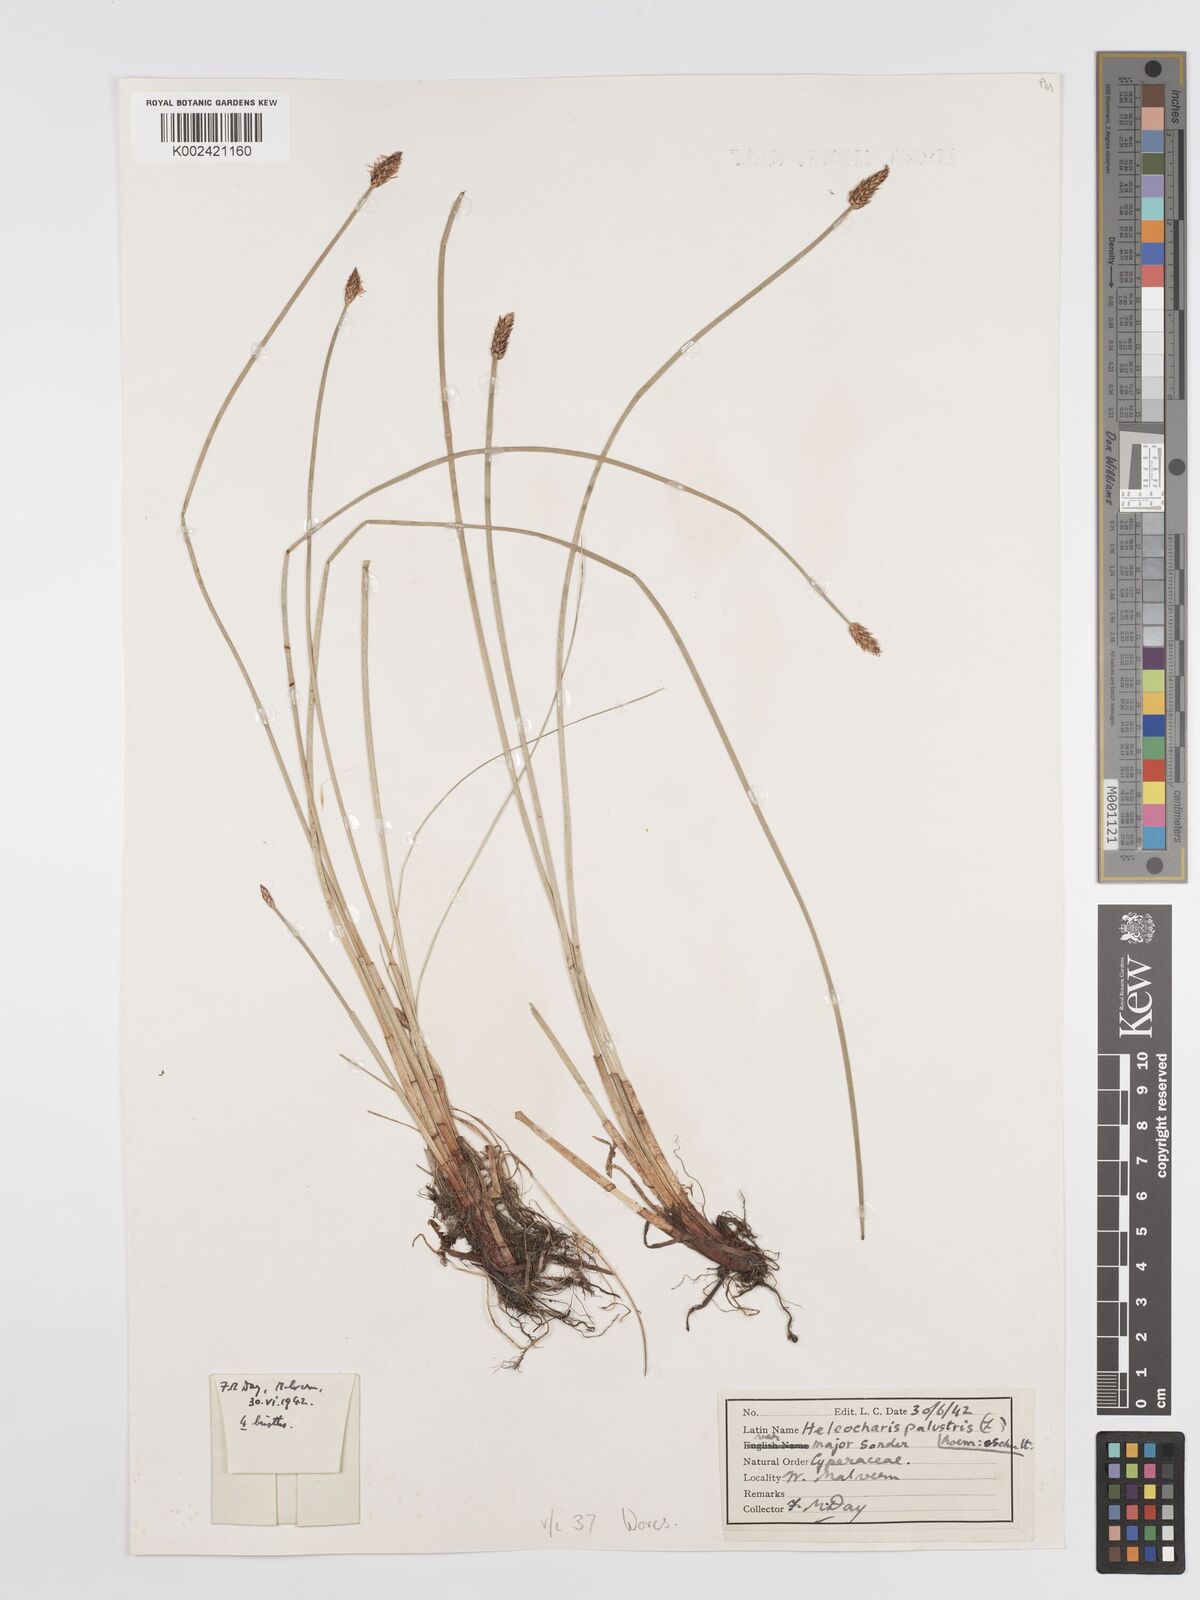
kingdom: Plantae
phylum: Tracheophyta
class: Liliopsida
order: Poales
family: Cyperaceae
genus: Eleocharis
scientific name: Eleocharis palustris
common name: Common spike-rush
